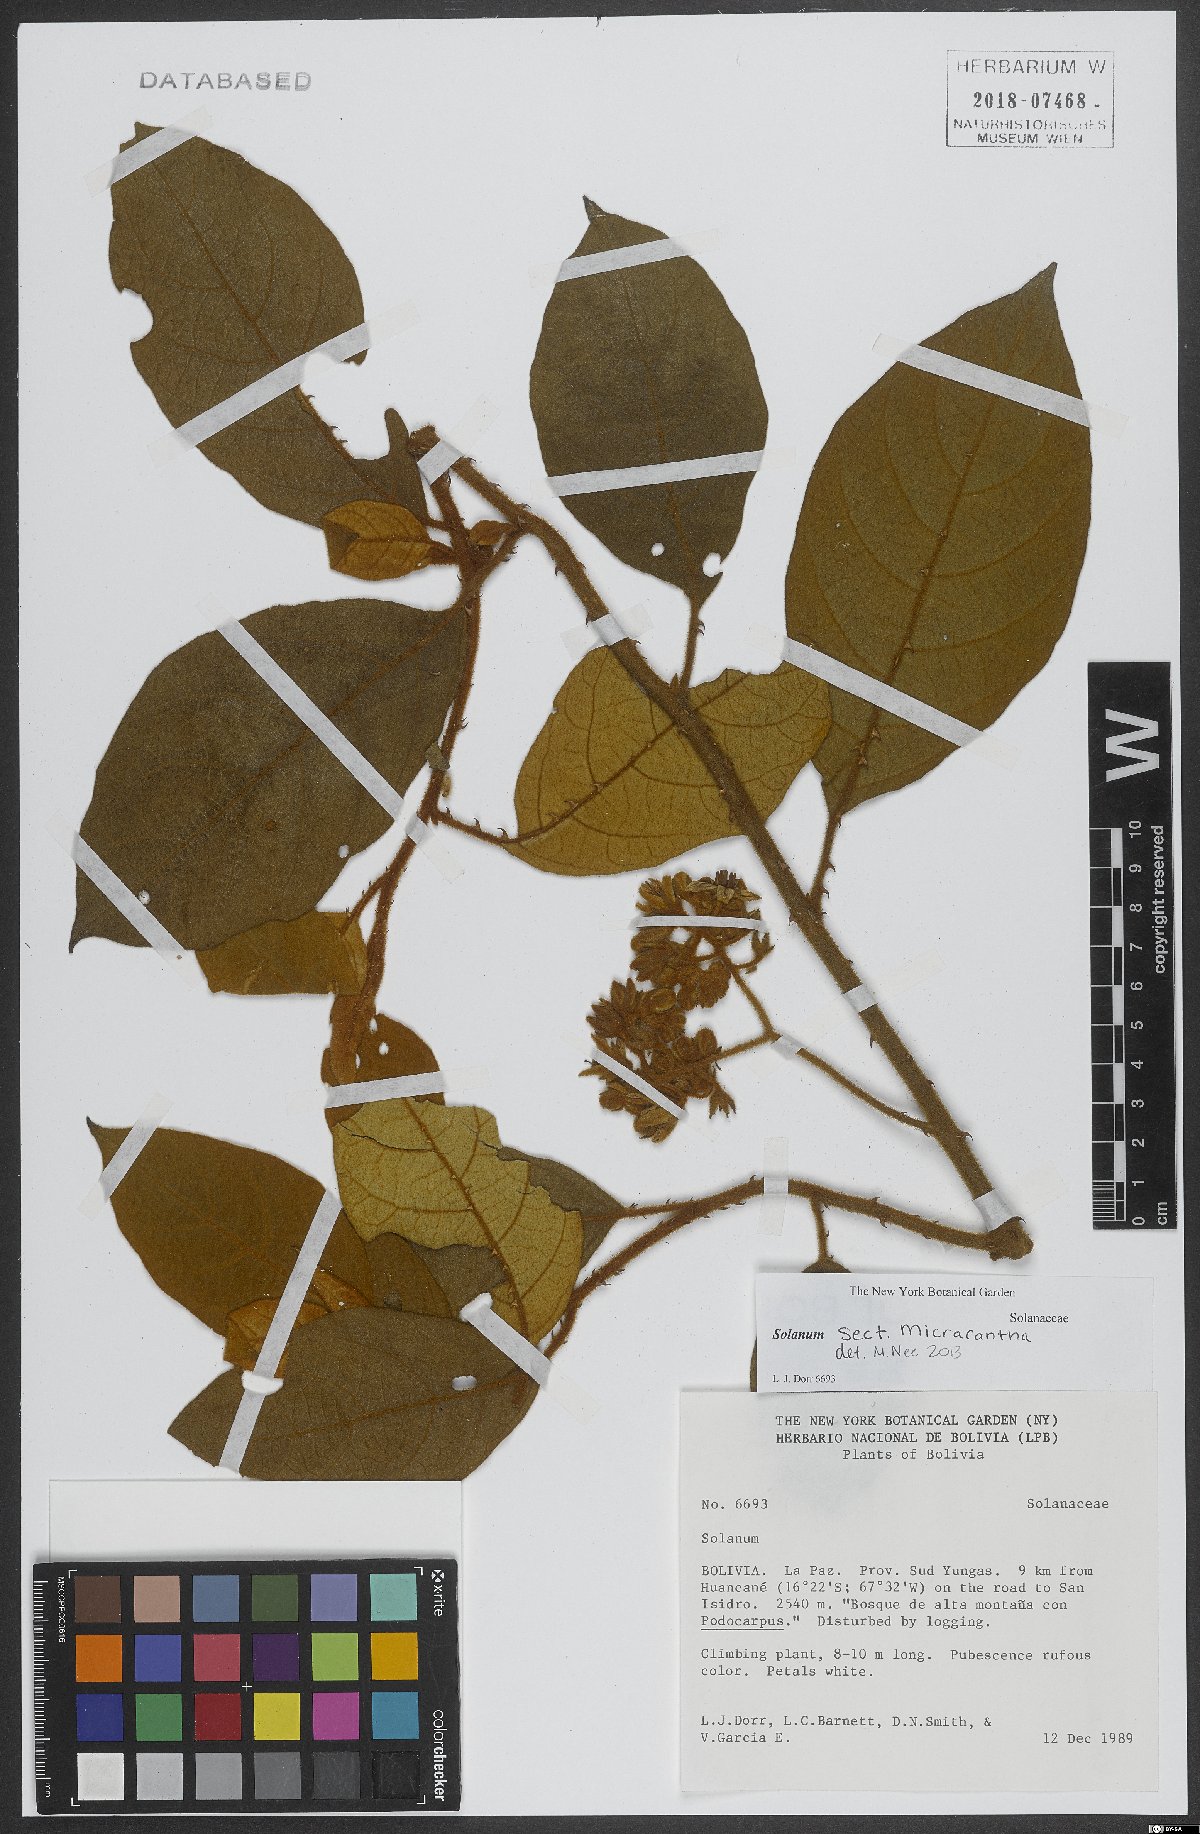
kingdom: Plantae
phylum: Tracheophyta
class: Magnoliopsida
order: Solanales
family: Solanaceae
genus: Solanum
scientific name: Solanum
